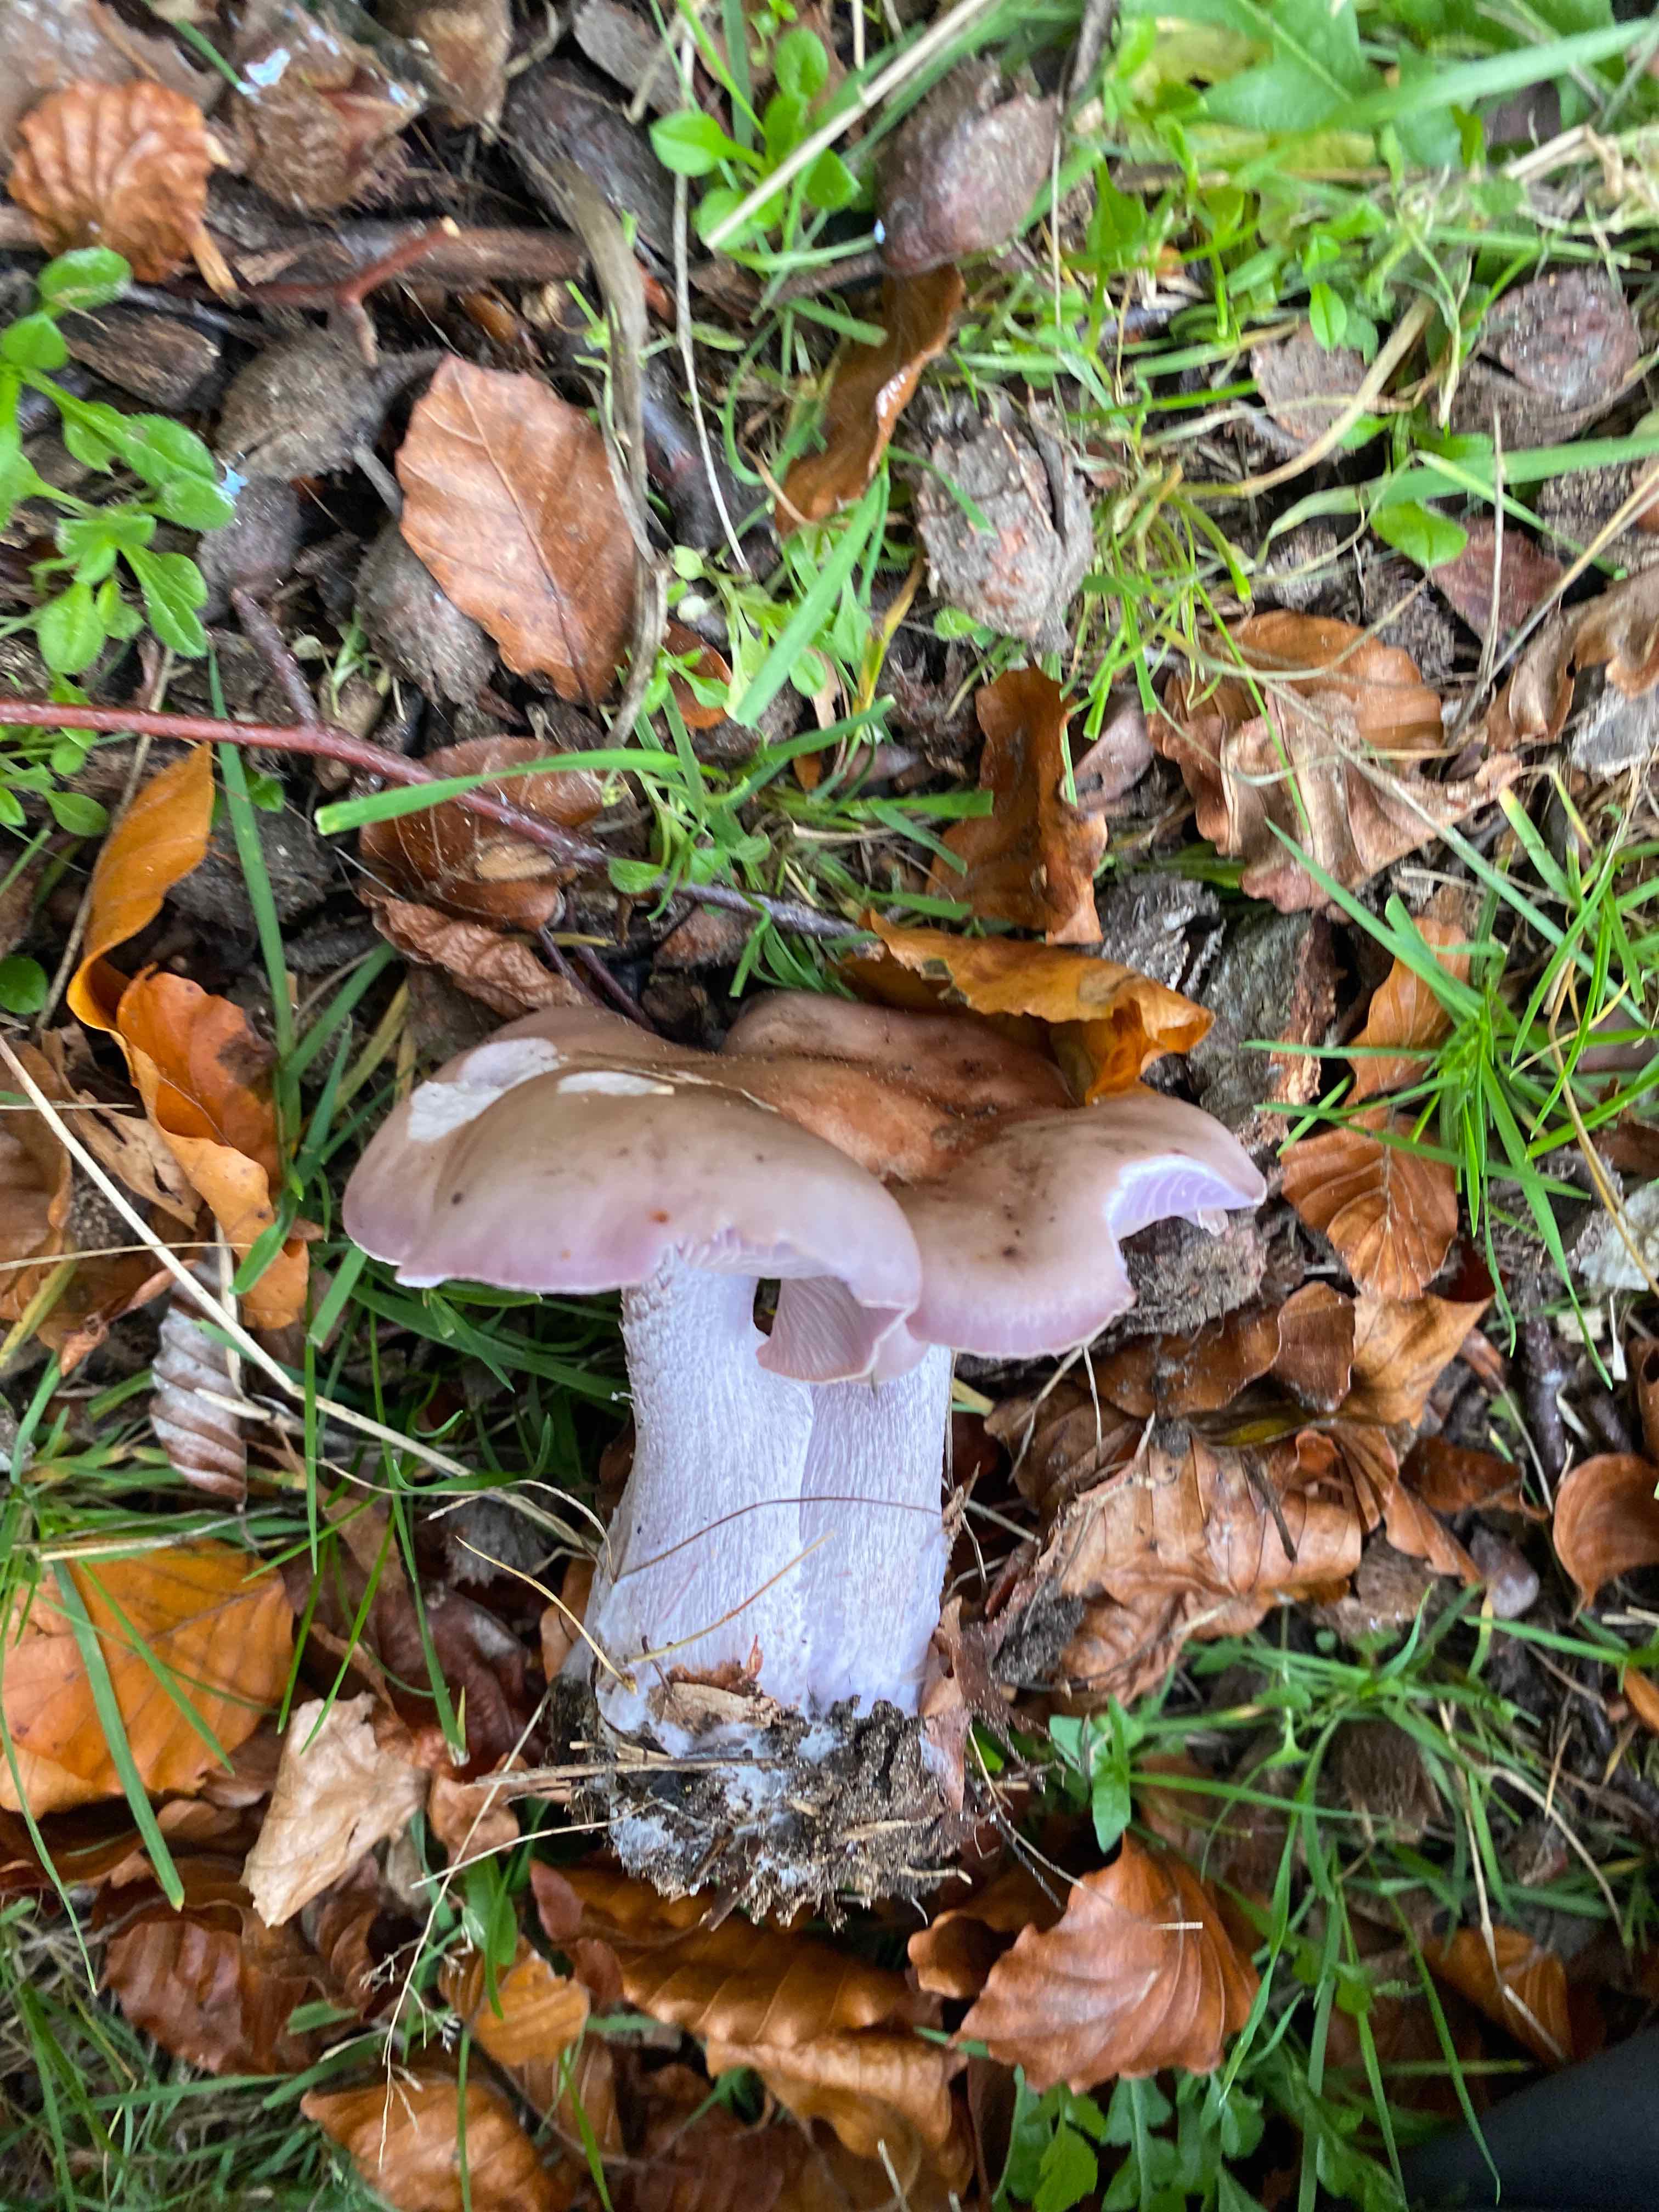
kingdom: Fungi
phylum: Basidiomycota
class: Agaricomycetes
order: Agaricales
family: Tricholomataceae
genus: Lepista
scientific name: Lepista nuda
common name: violet hekseringshat
